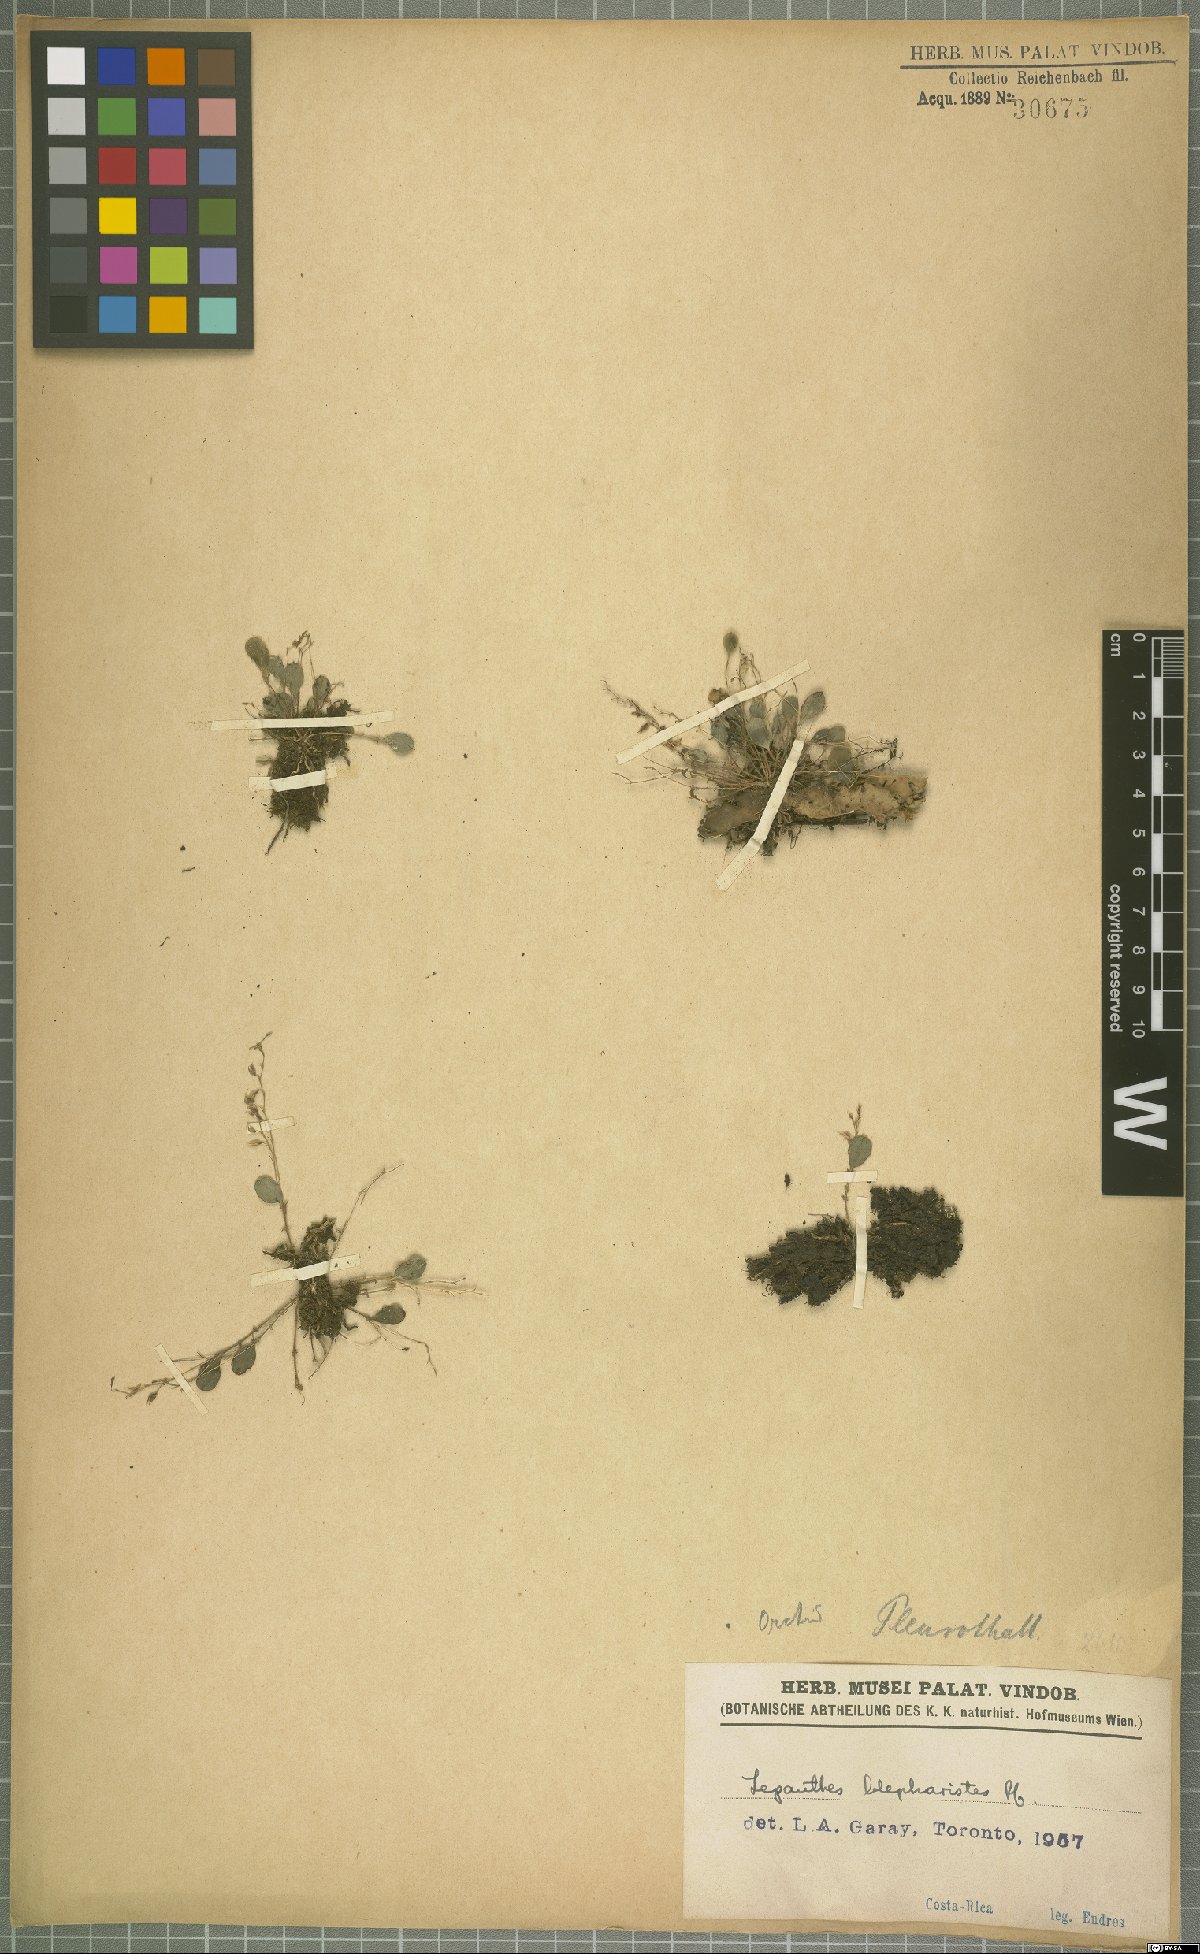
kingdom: Plantae
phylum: Tracheophyta
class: Liliopsida
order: Asparagales
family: Orchidaceae
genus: Lepanthes
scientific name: Lepanthes blepharistes
